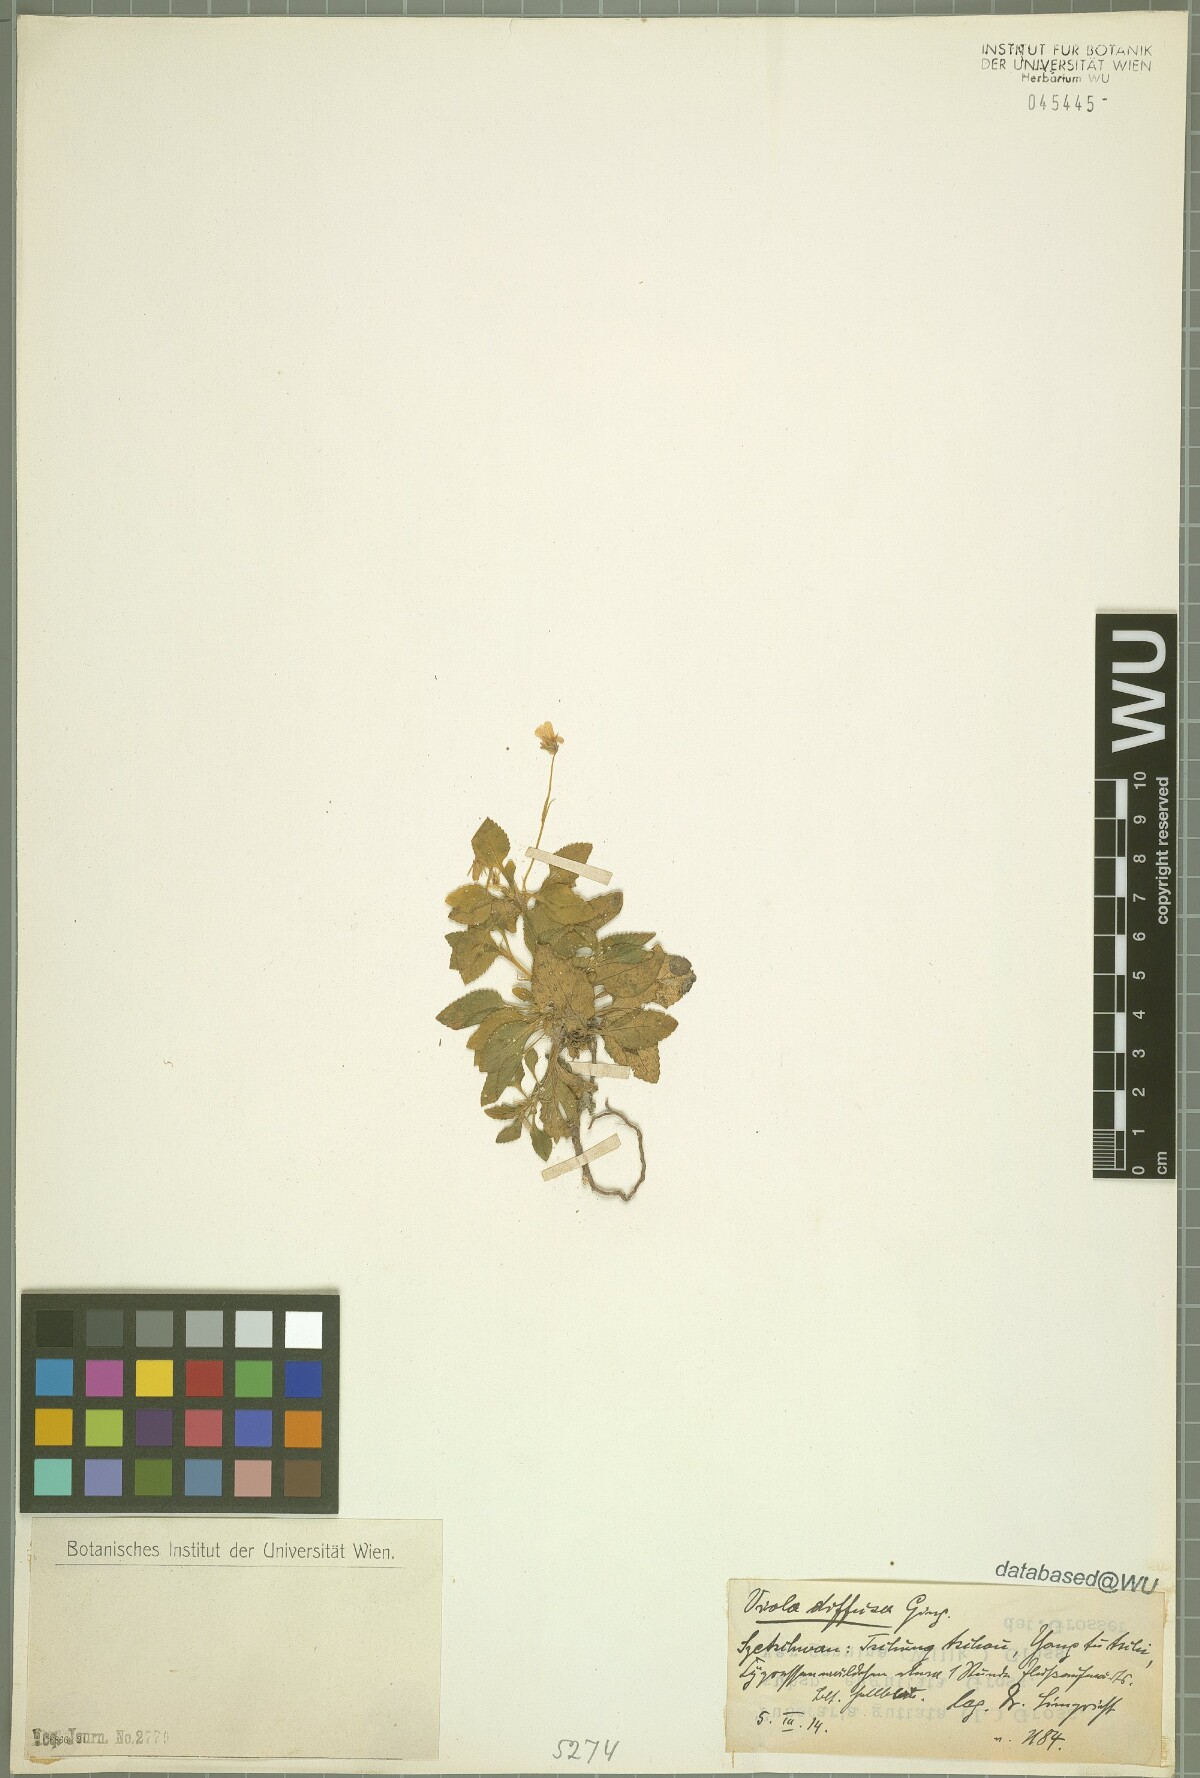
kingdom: Plantae
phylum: Tracheophyta
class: Magnoliopsida
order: Malpighiales
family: Violaceae
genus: Viola
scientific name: Viola diffusa
